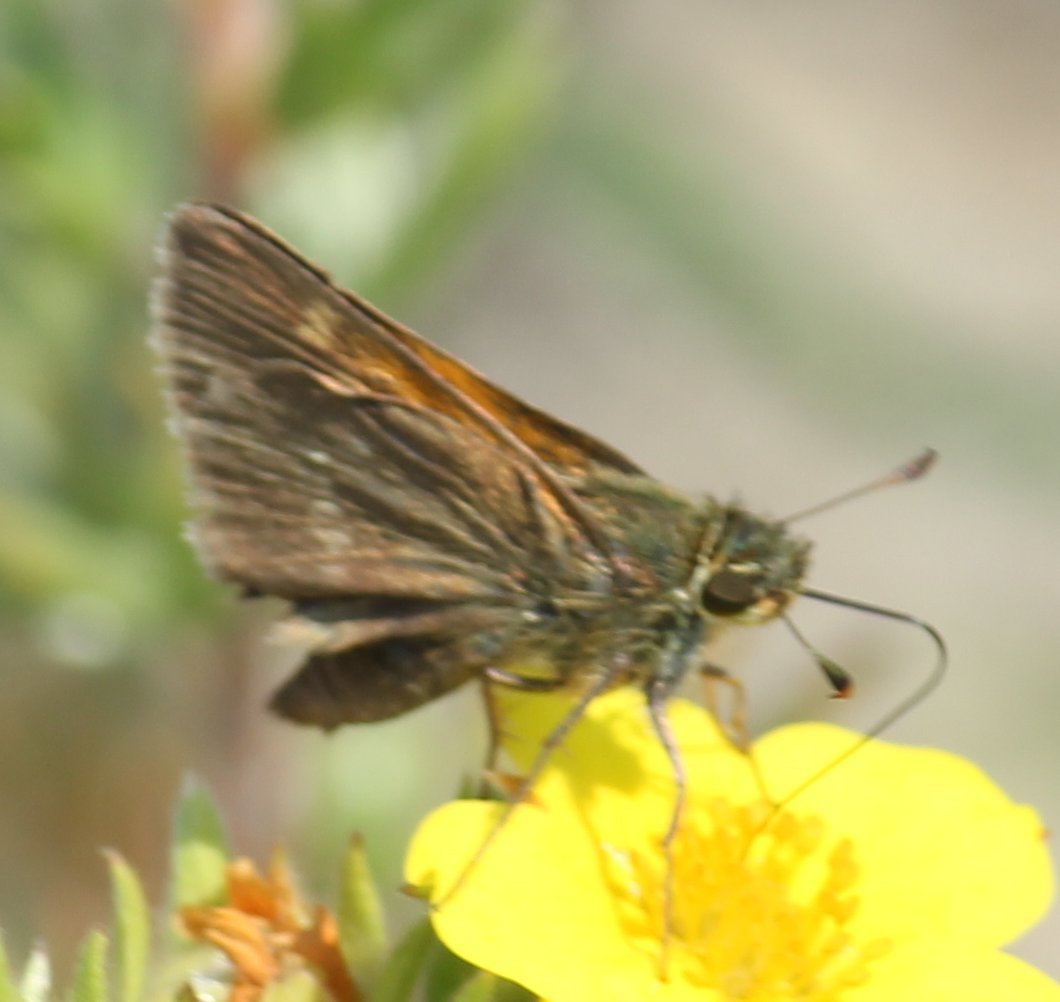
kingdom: Animalia
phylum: Arthropoda
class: Insecta
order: Lepidoptera
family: Hesperiidae
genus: Polites
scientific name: Polites themistocles
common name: Tawny-edged Skipper
